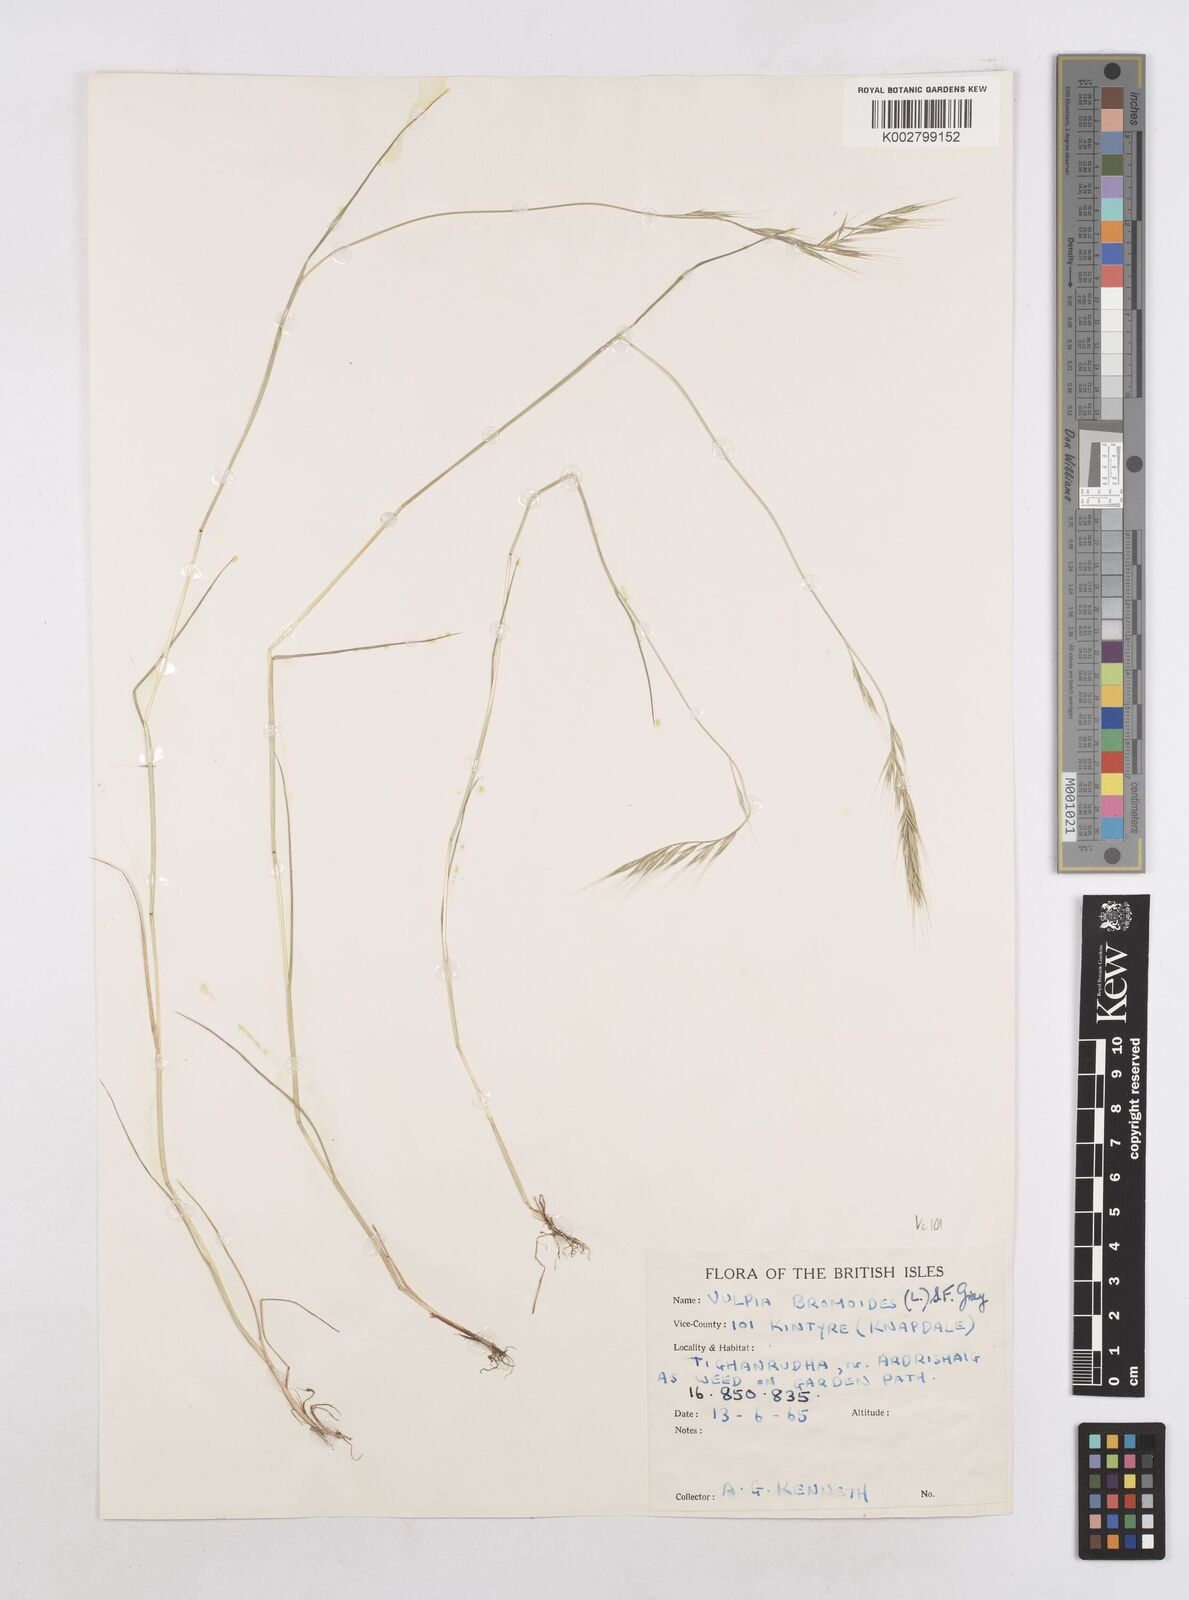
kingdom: Plantae
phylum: Tracheophyta
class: Liliopsida
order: Poales
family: Poaceae
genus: Festuca
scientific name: Festuca bromoides
